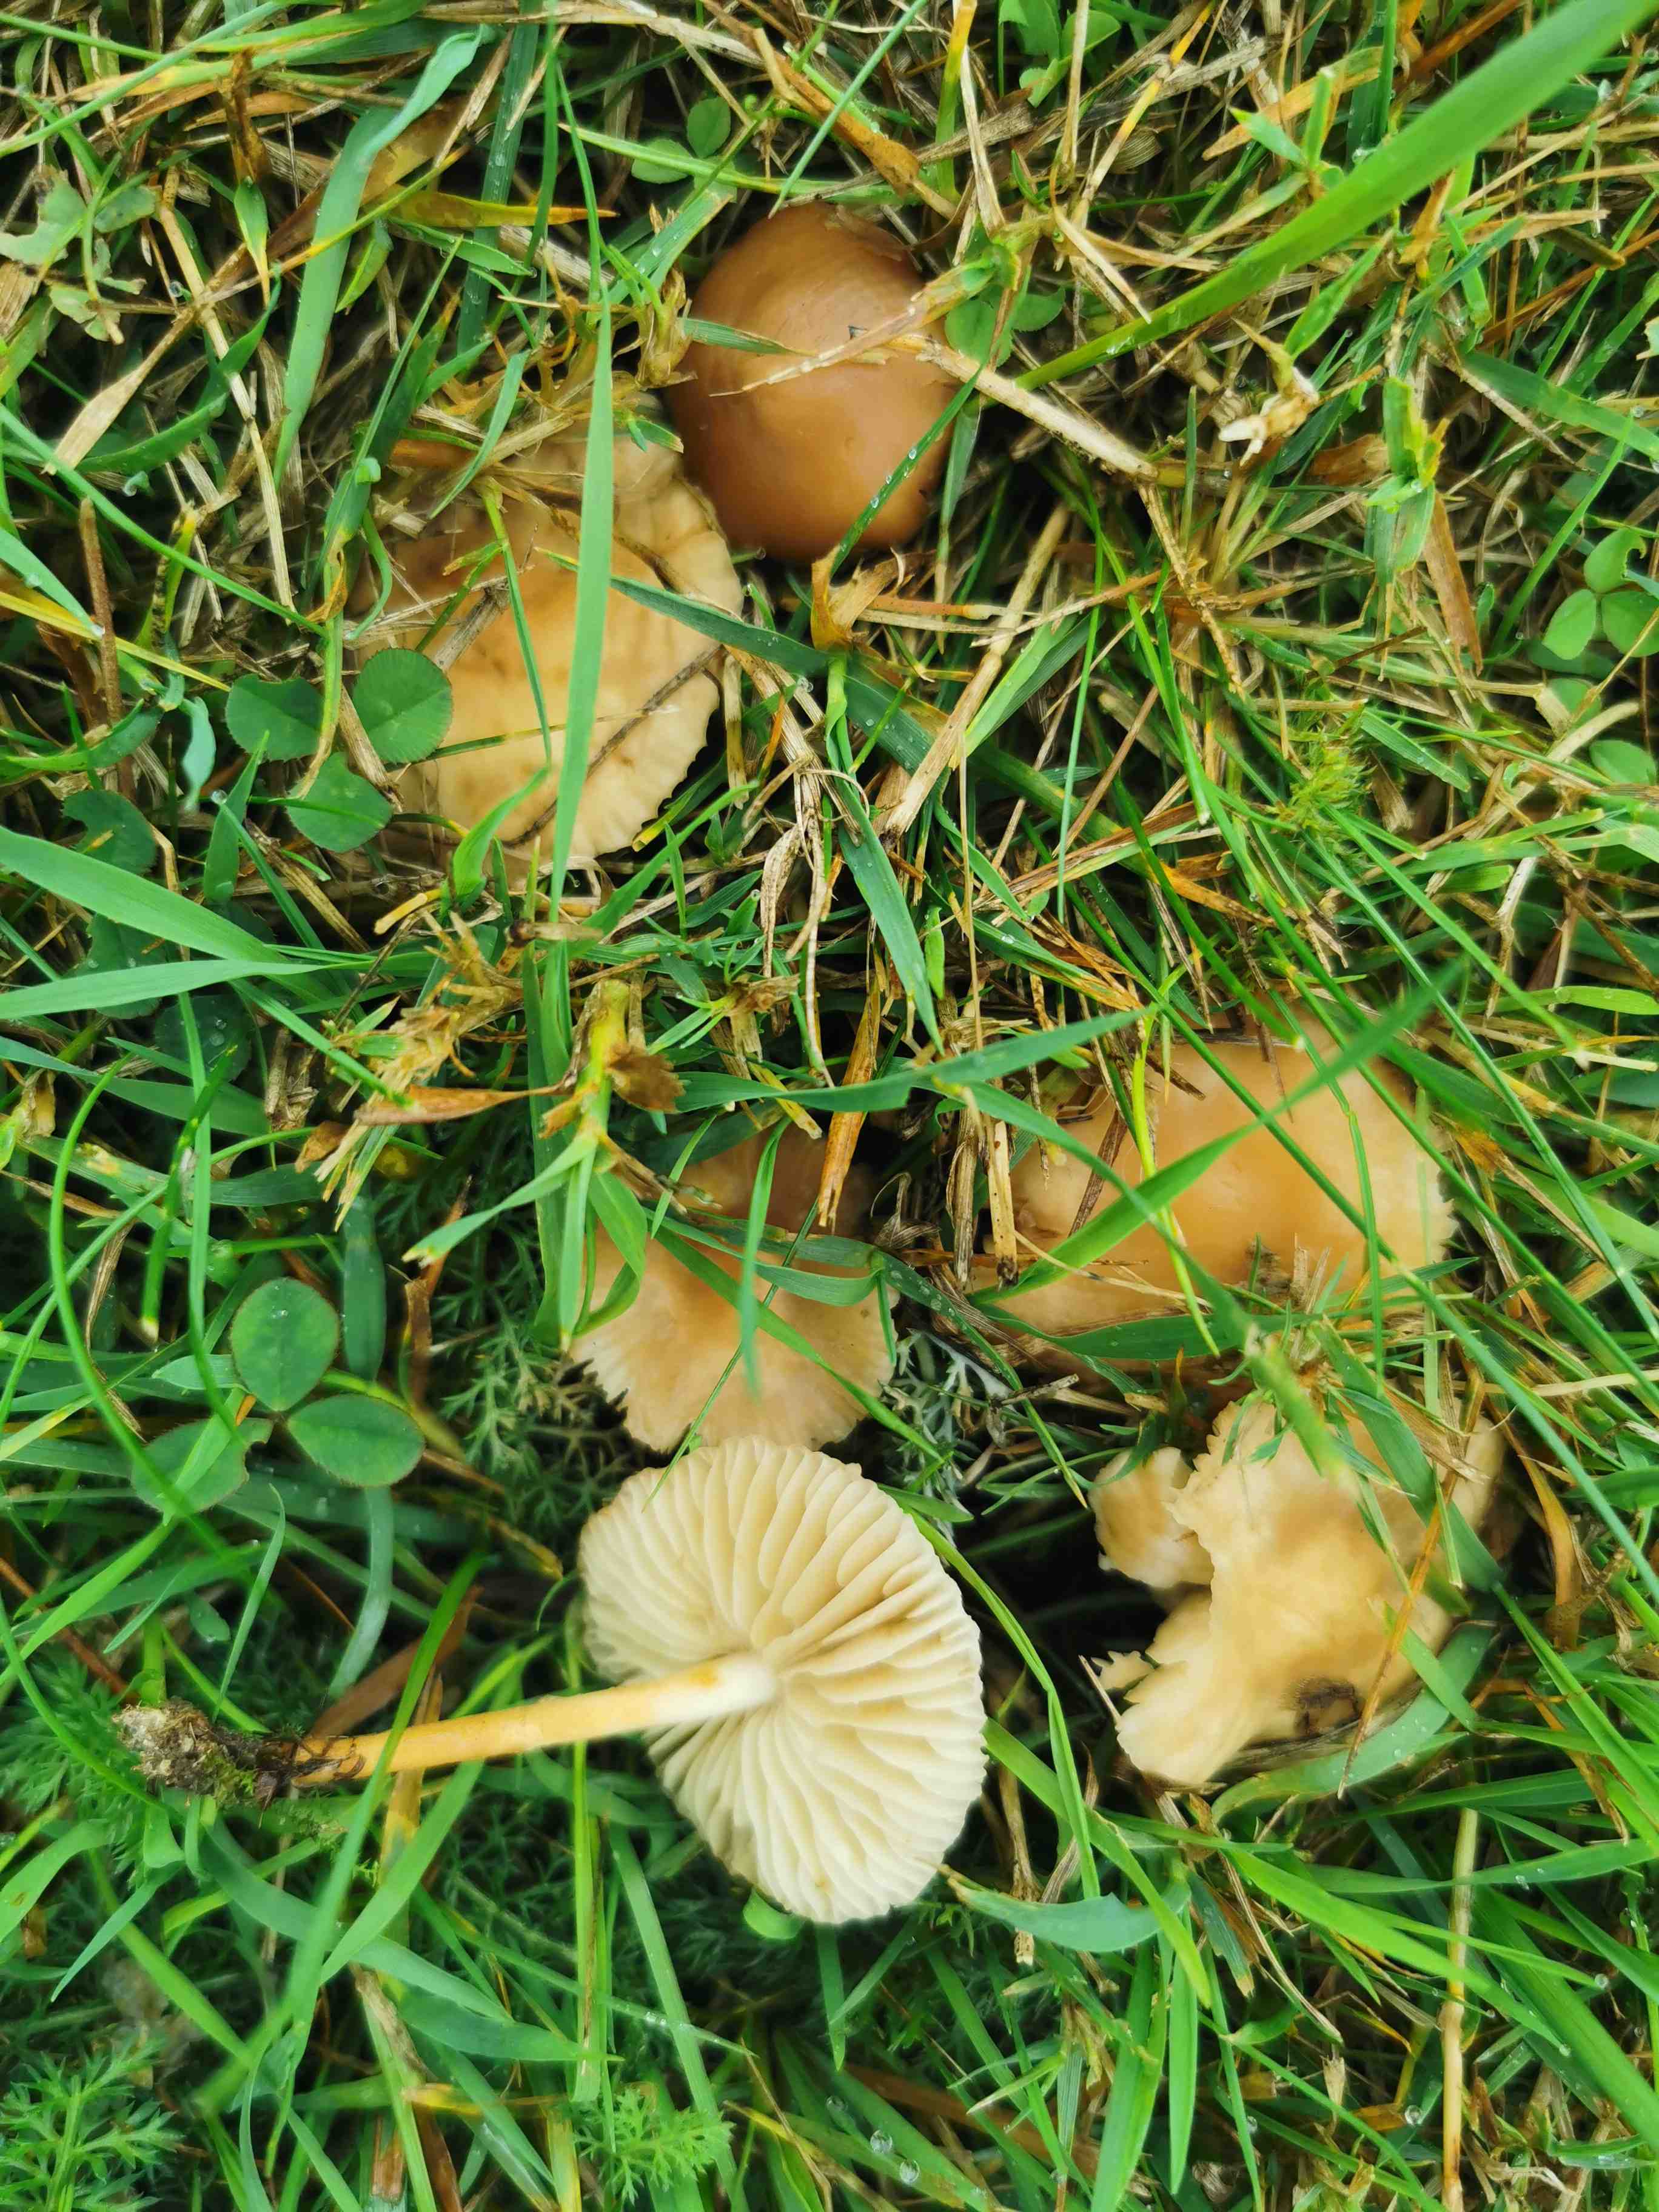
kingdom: Fungi
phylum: Basidiomycota
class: Agaricomycetes
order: Agaricales
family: Marasmiaceae
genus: Marasmius
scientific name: Marasmius oreades
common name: elledans-bruskhat
